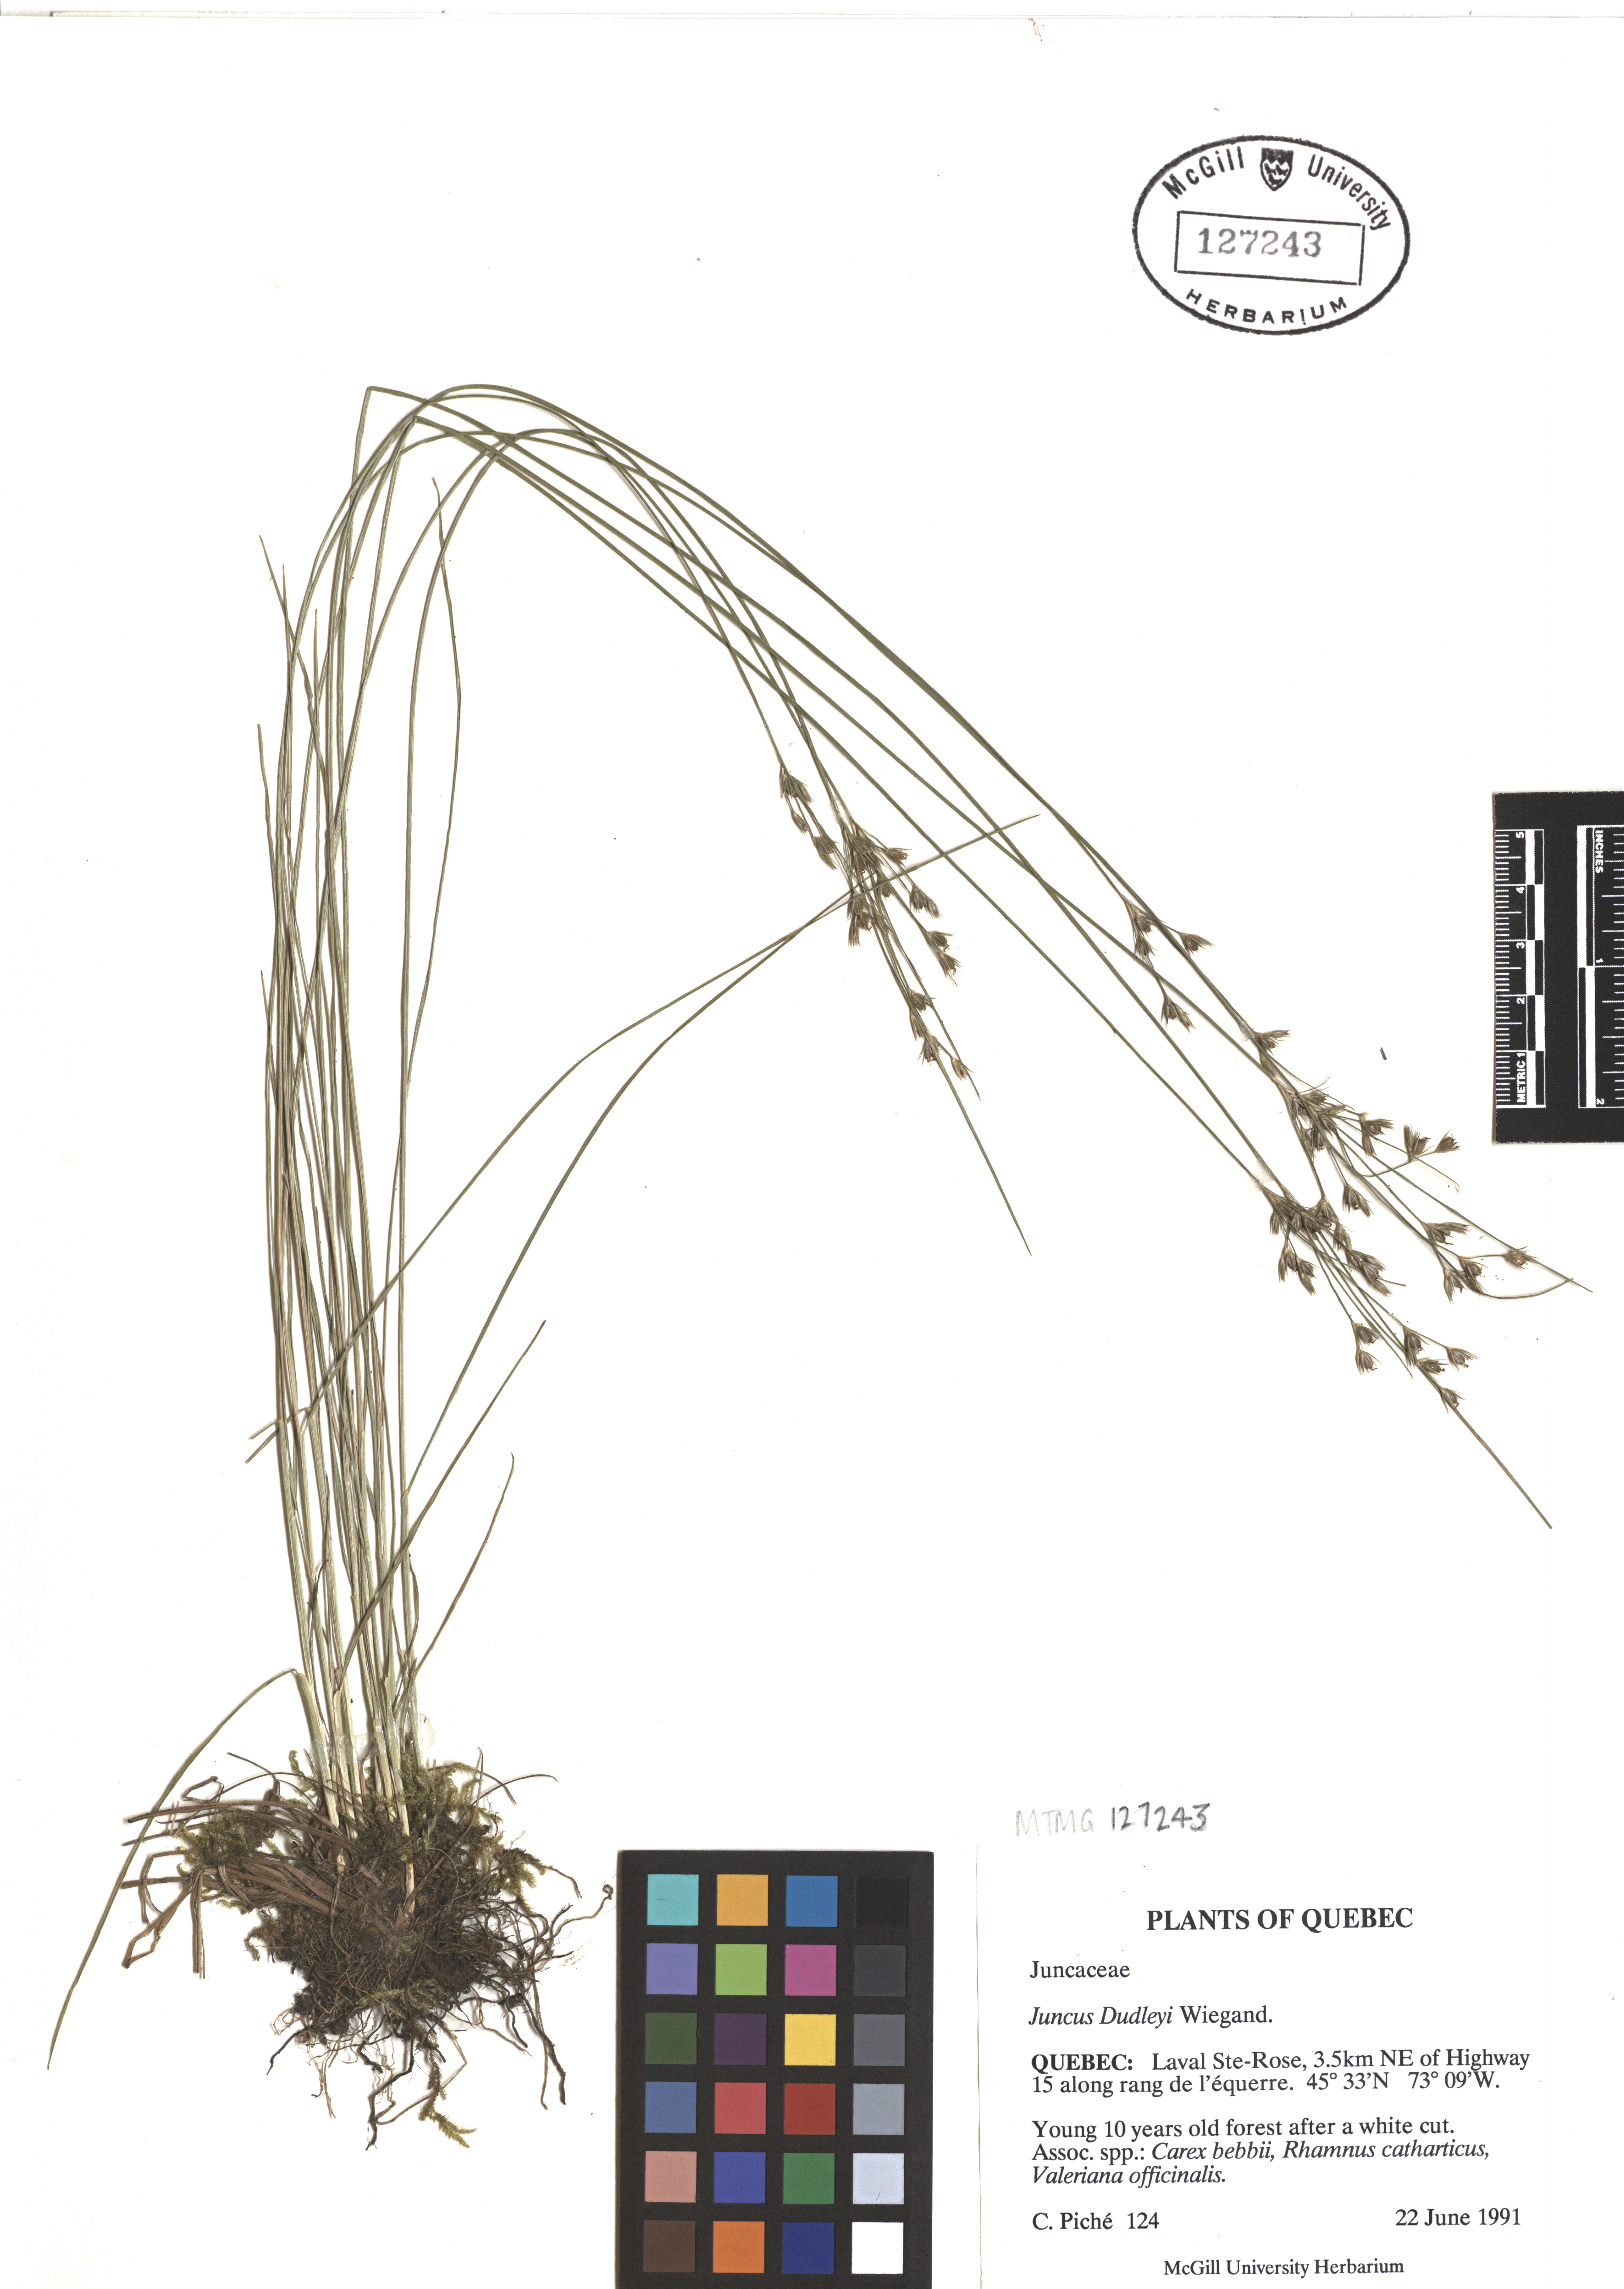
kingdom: Plantae
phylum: Tracheophyta
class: Liliopsida
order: Poales
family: Juncaceae
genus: Juncus
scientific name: Juncus dudleyi
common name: Dudley's rush
